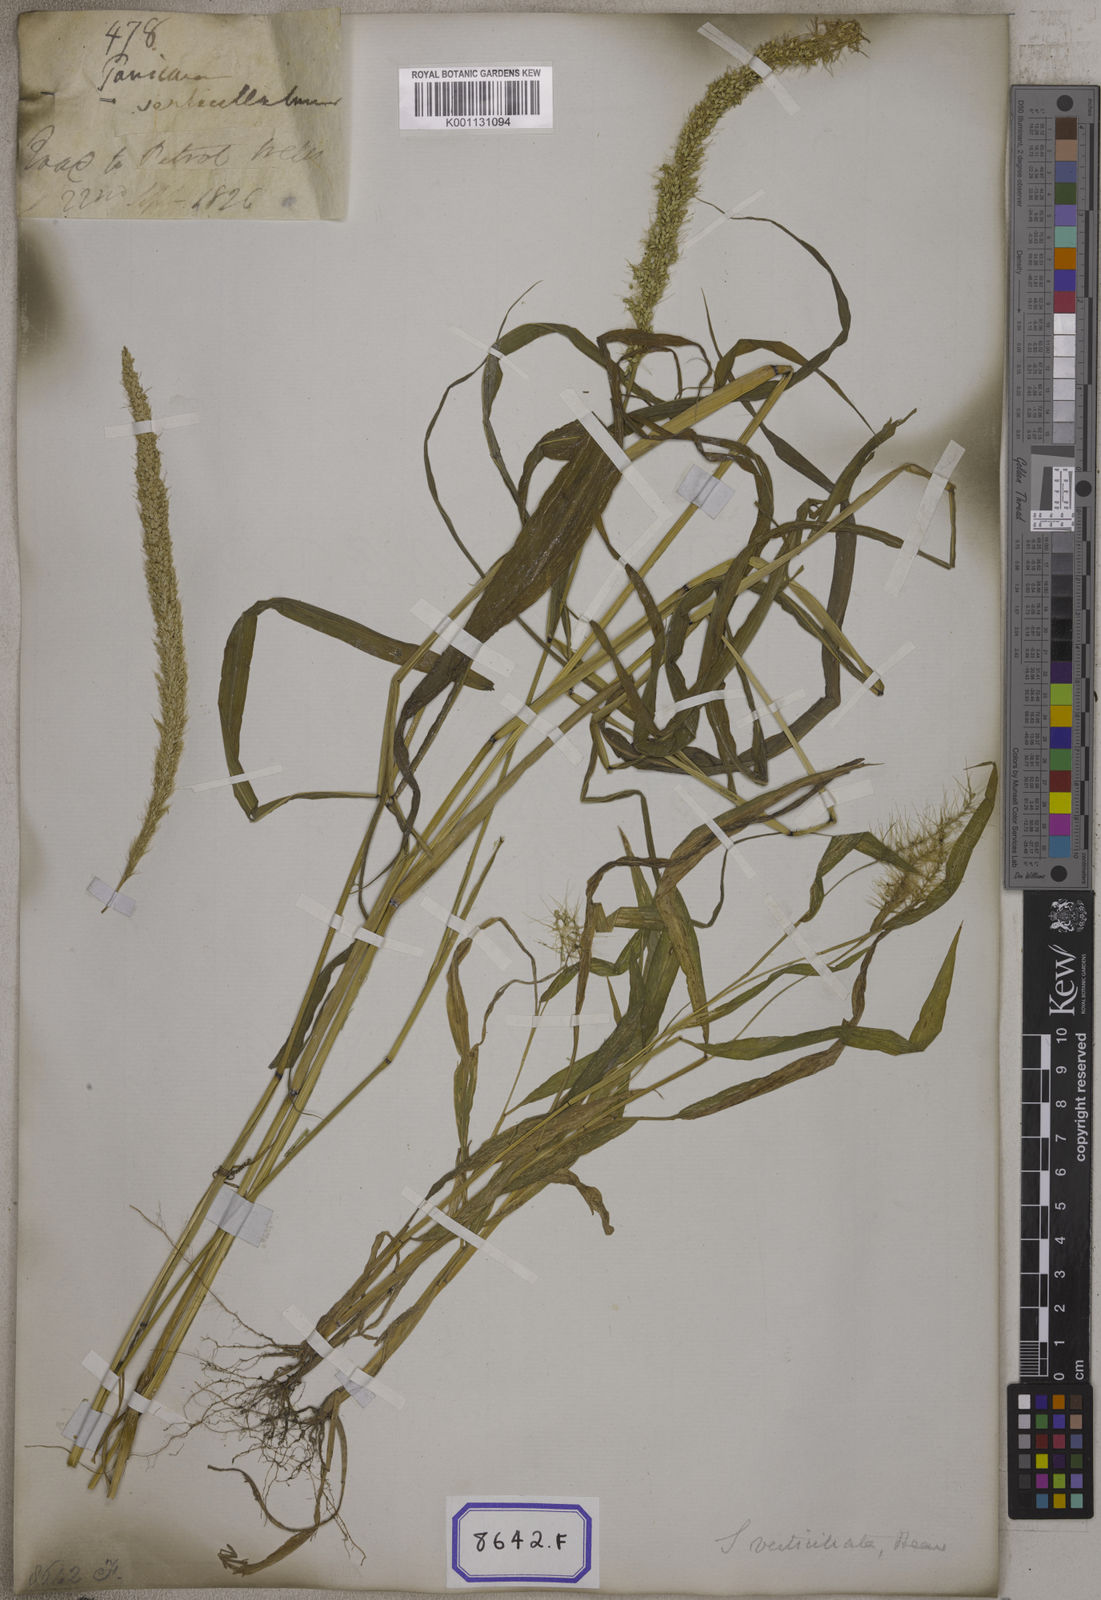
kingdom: Plantae
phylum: Tracheophyta
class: Liliopsida
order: Poales
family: Poaceae
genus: Setaria
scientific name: Setaria verticillata
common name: Hooked bristlegrass
